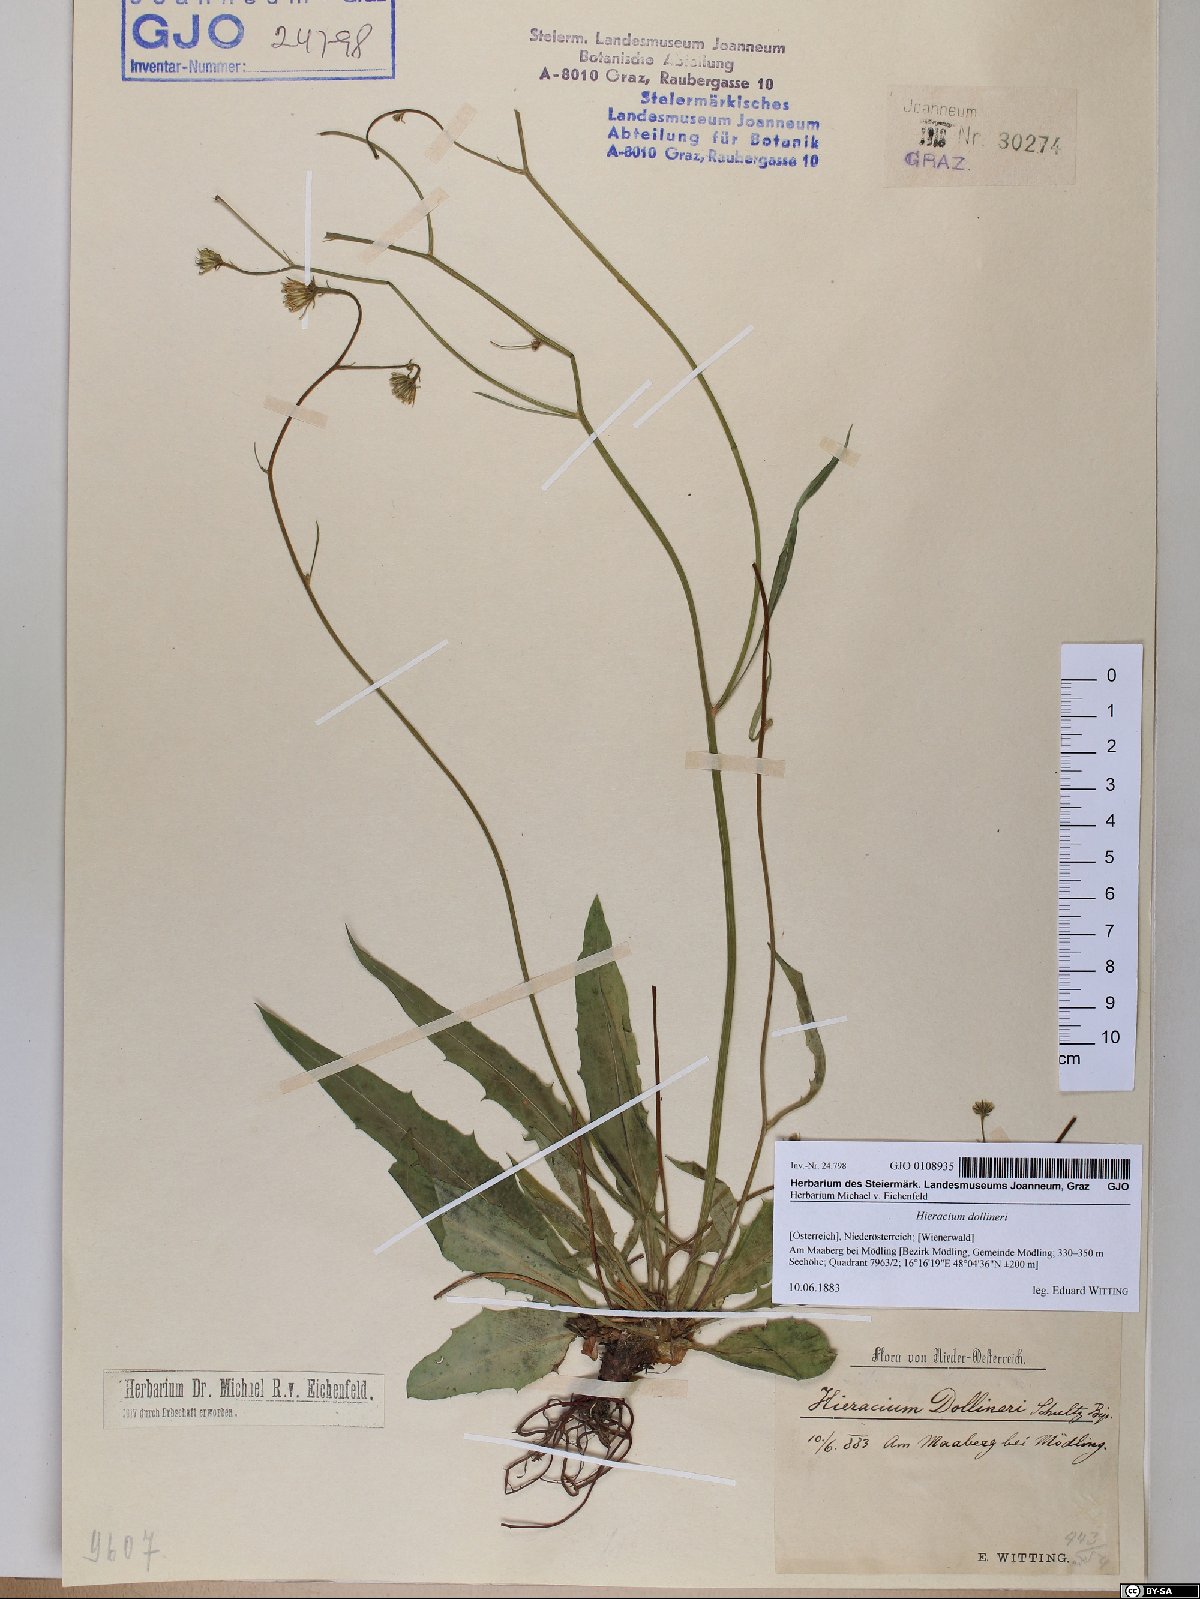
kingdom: Plantae
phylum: Tracheophyta
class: Magnoliopsida
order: Asterales
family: Asteraceae
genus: Hieracium
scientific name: Hieracium dollineri
